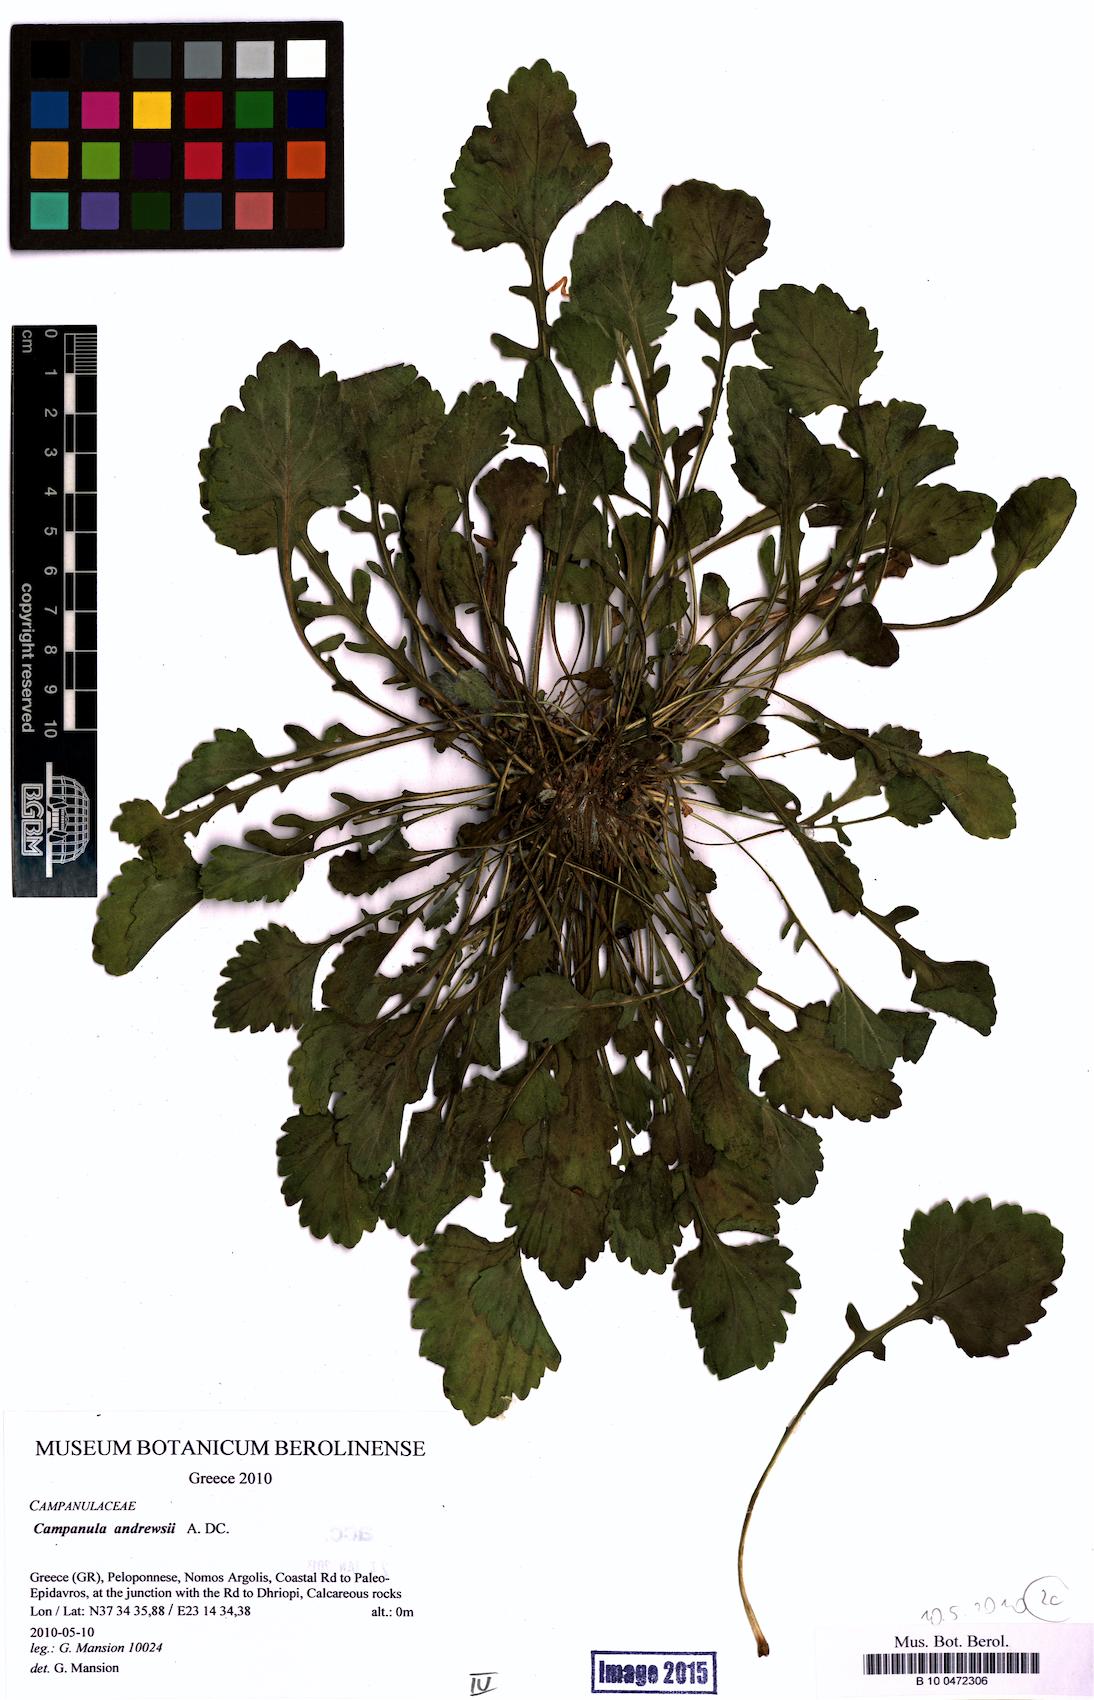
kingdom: Plantae
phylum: Tracheophyta
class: Magnoliopsida
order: Asterales
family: Campanulaceae
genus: Campanula
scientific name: Campanula andrewsii
